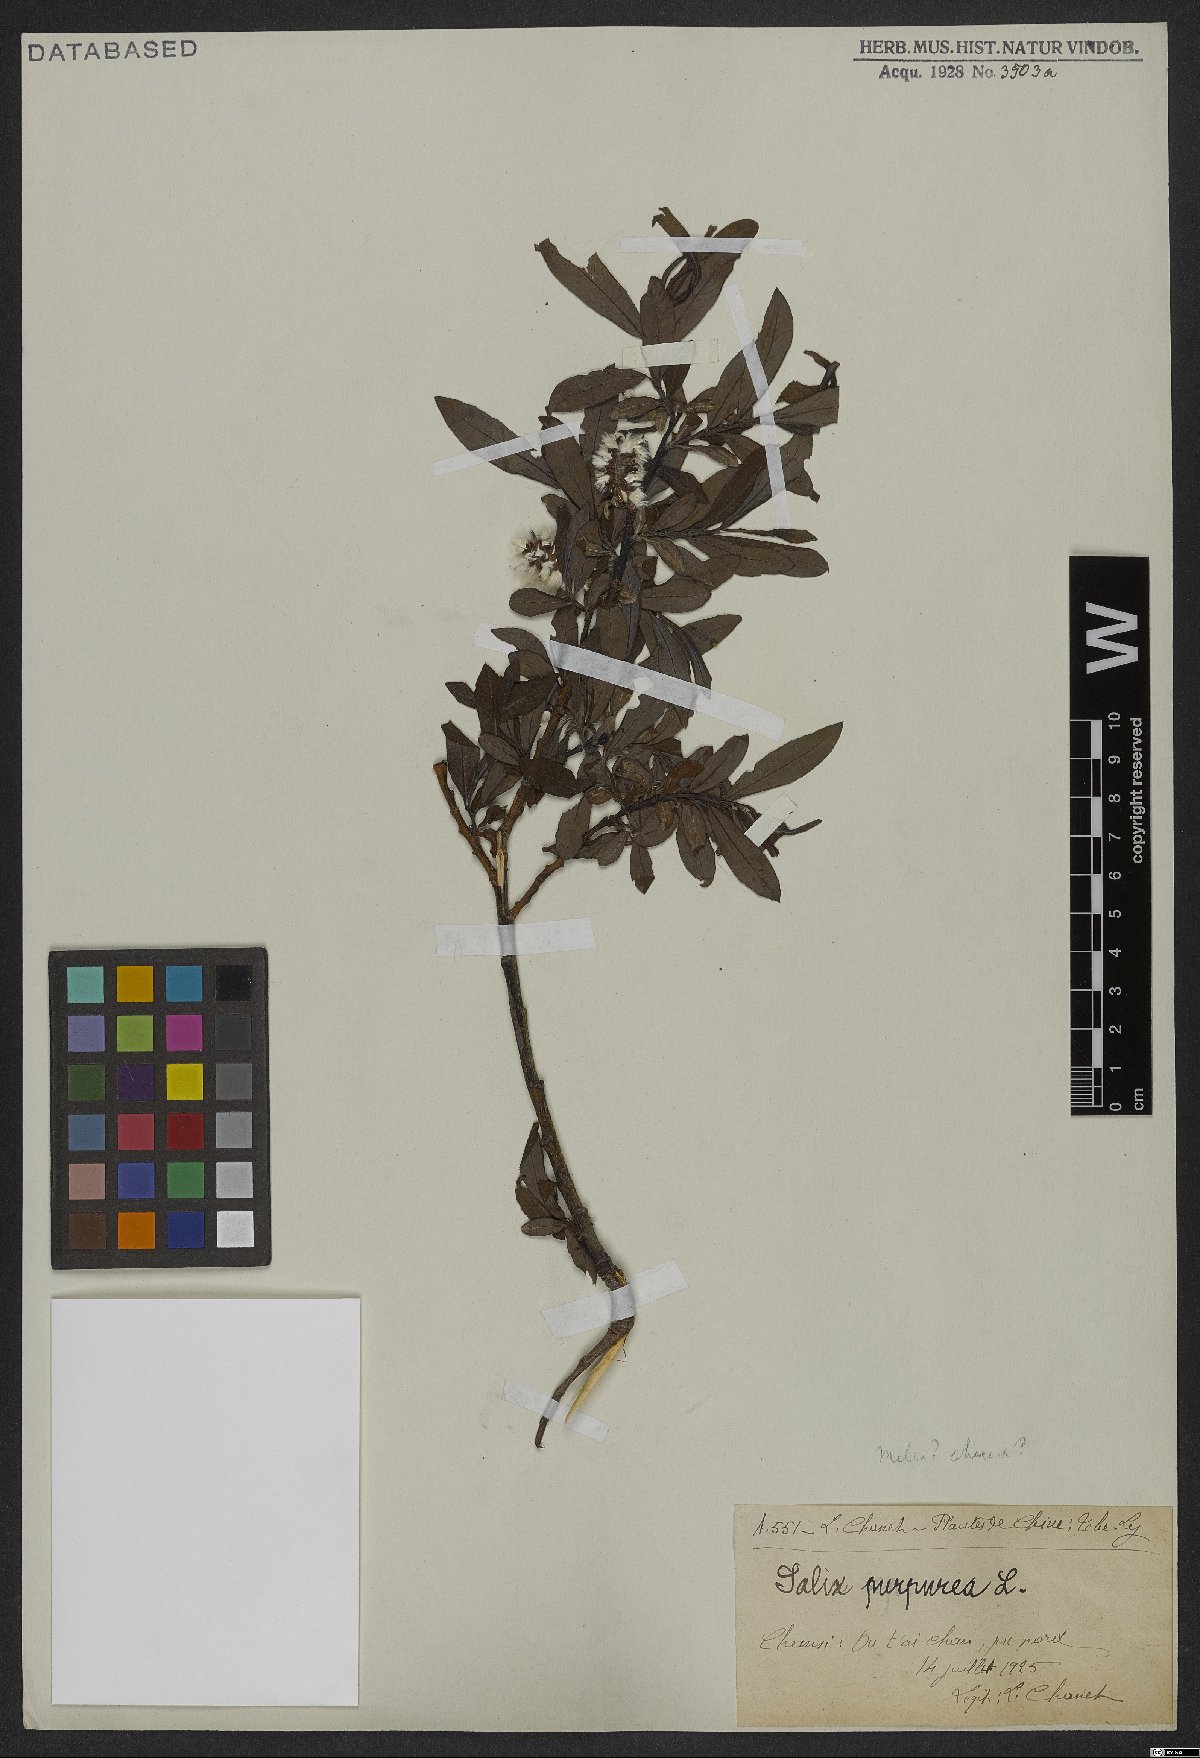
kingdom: Plantae
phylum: Tracheophyta
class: Magnoliopsida
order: Malpighiales
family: Salicaceae
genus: Salix
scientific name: Salix purpurea
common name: Purple willow
